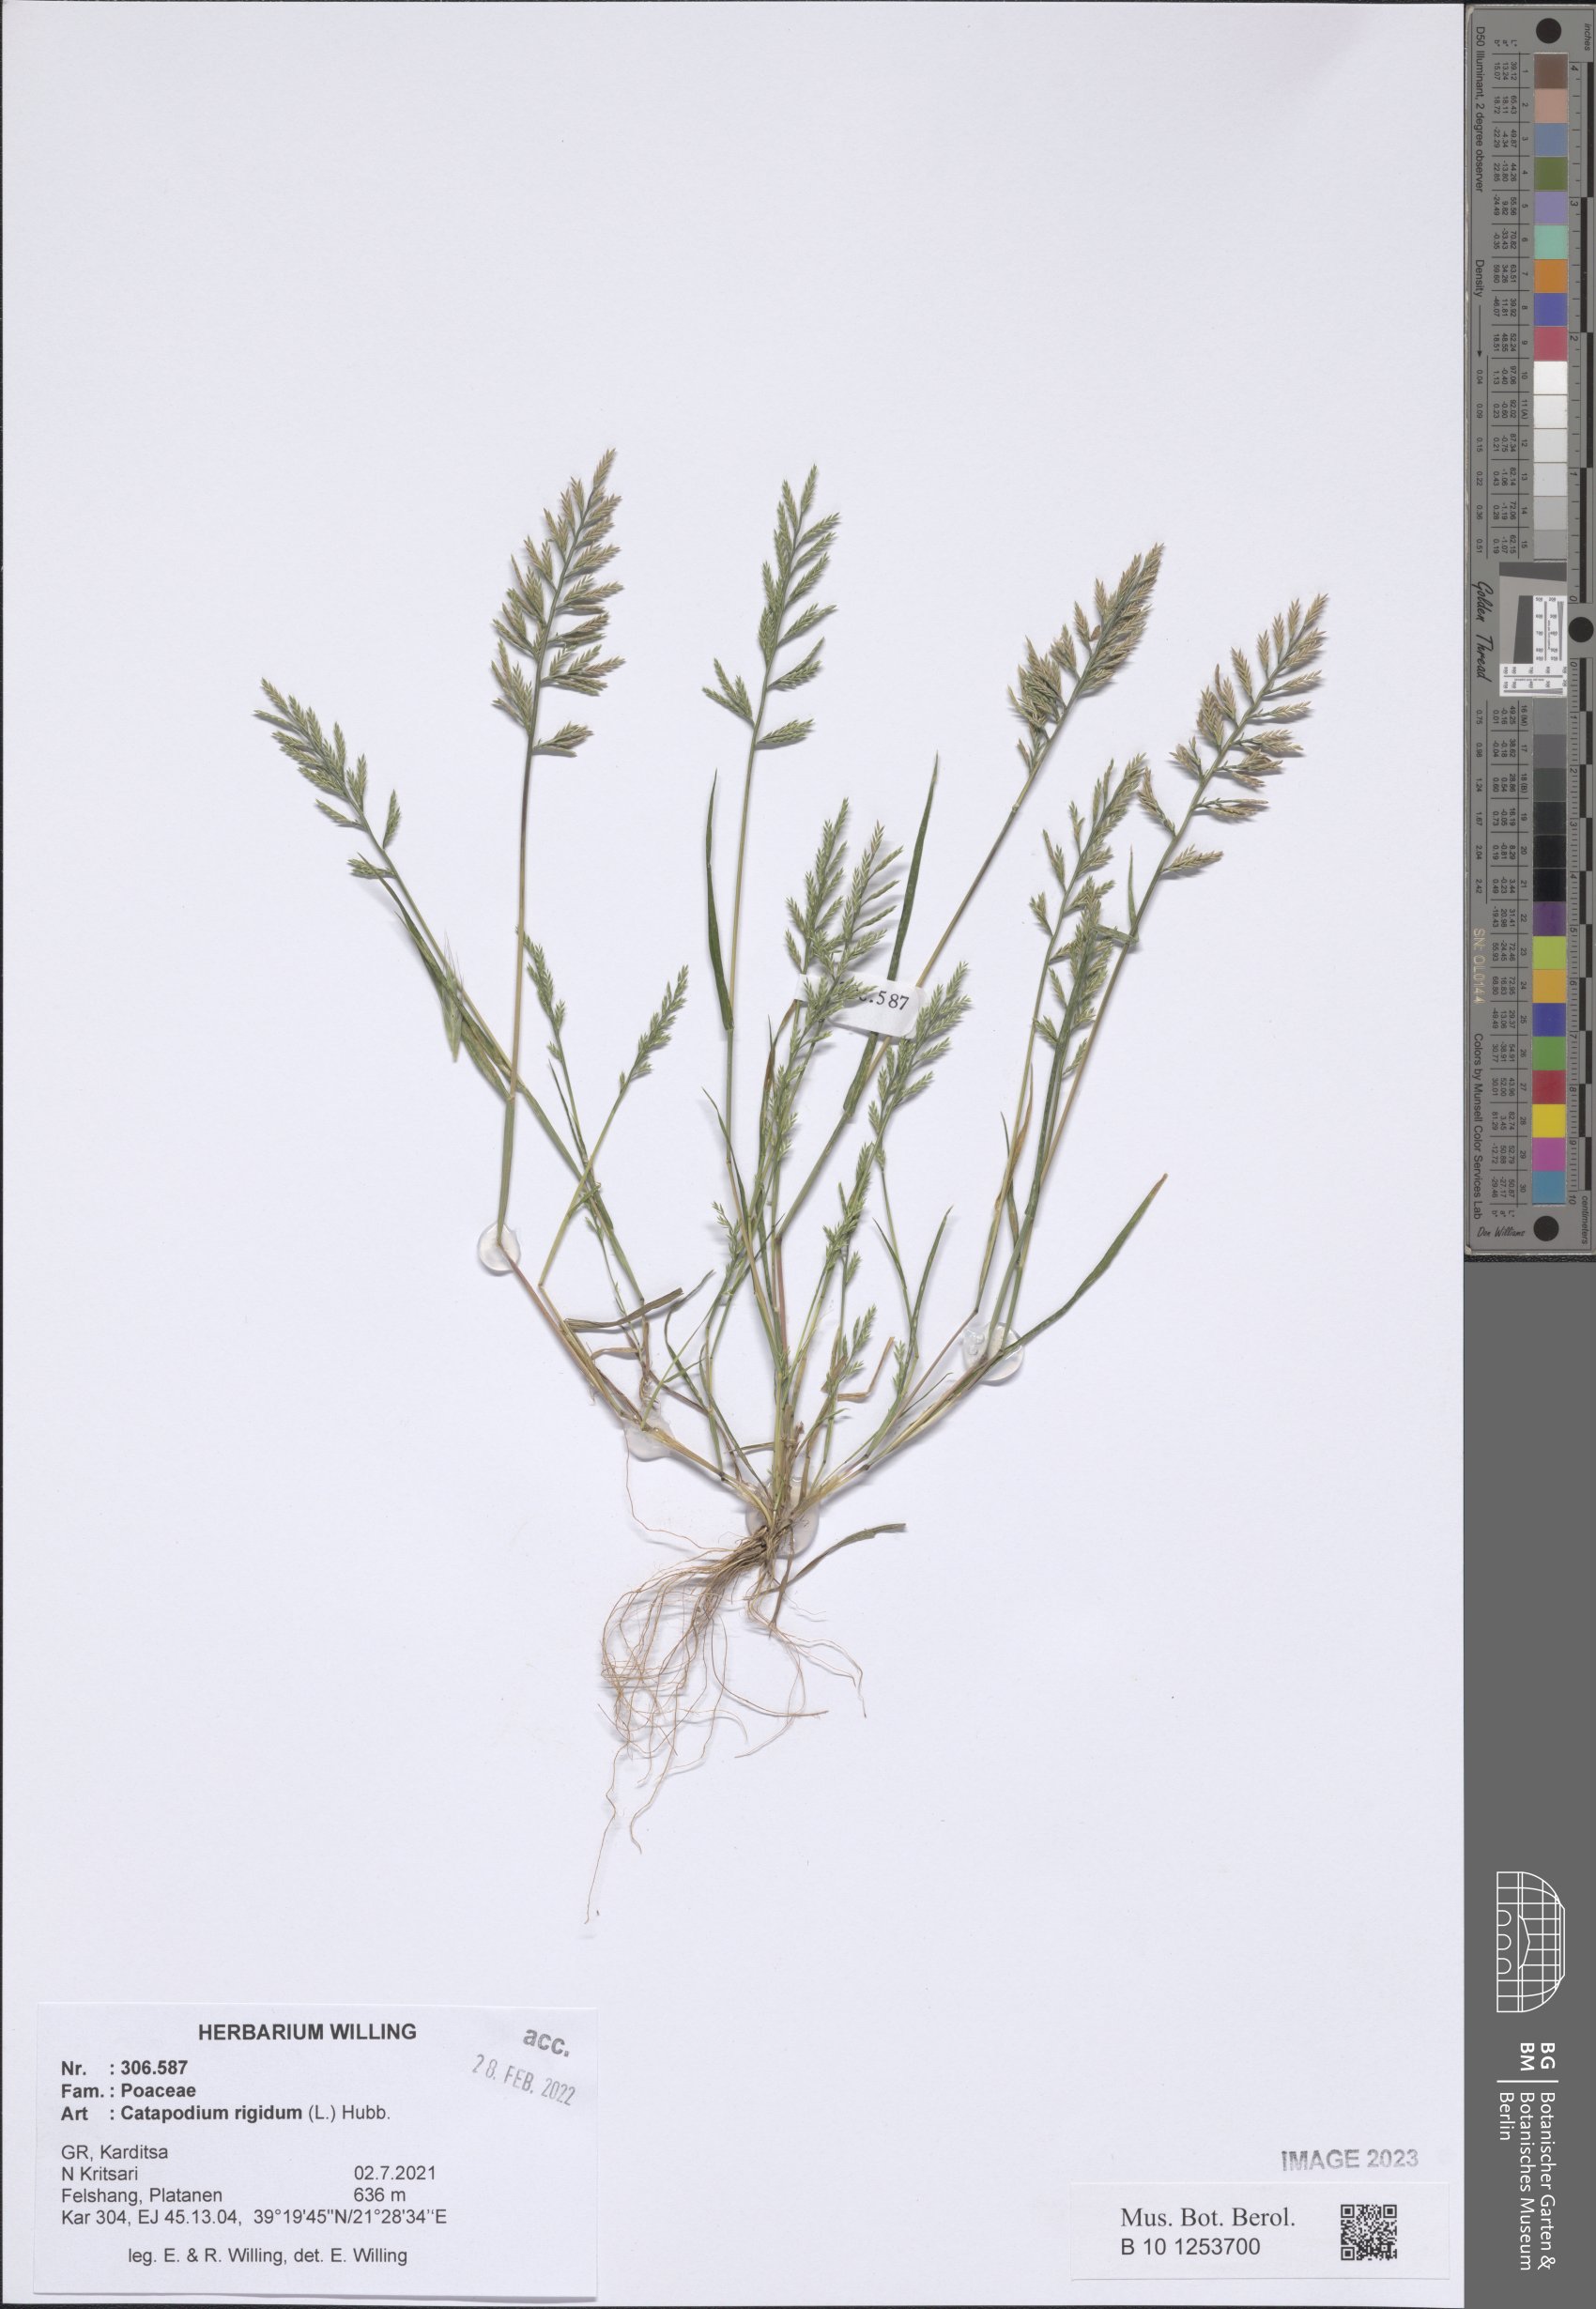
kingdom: Plantae
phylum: Tracheophyta
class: Liliopsida
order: Poales
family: Poaceae
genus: Catapodium
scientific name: Catapodium rigidum
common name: Fern-grass
